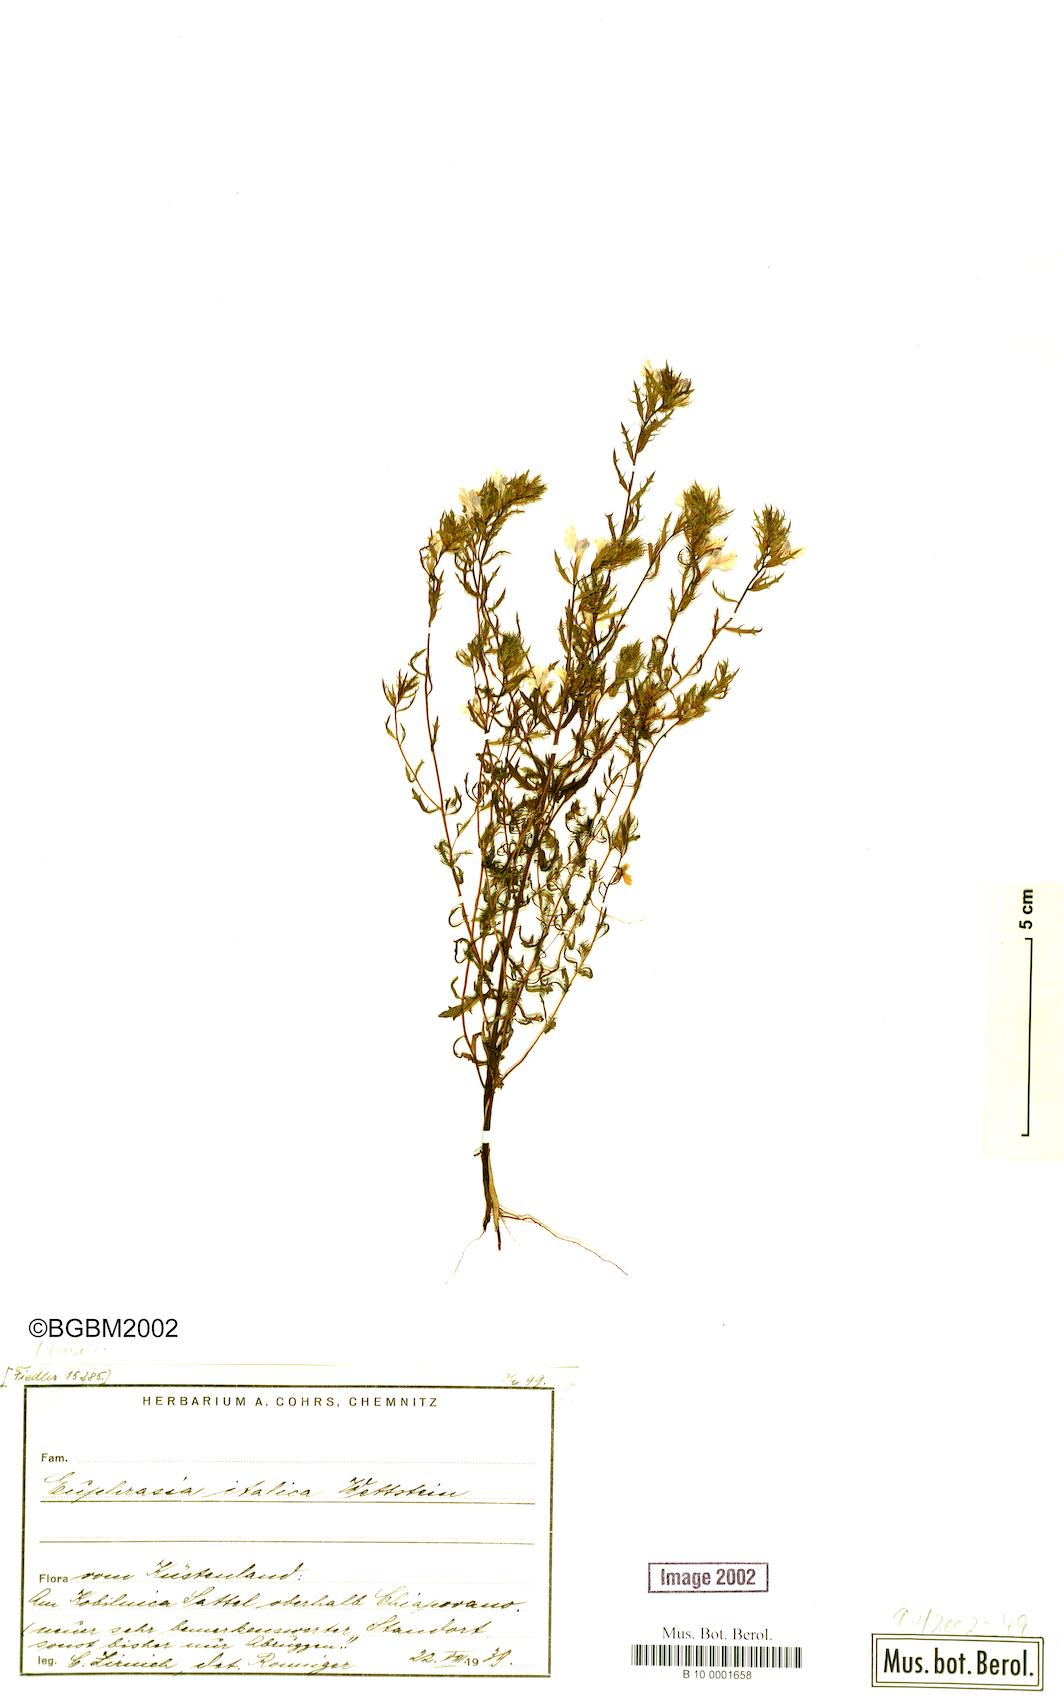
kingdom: Plantae
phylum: Tracheophyta
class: Magnoliopsida
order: Lamiales
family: Orobanchaceae
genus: Euphrasia
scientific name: Euphrasia portae
